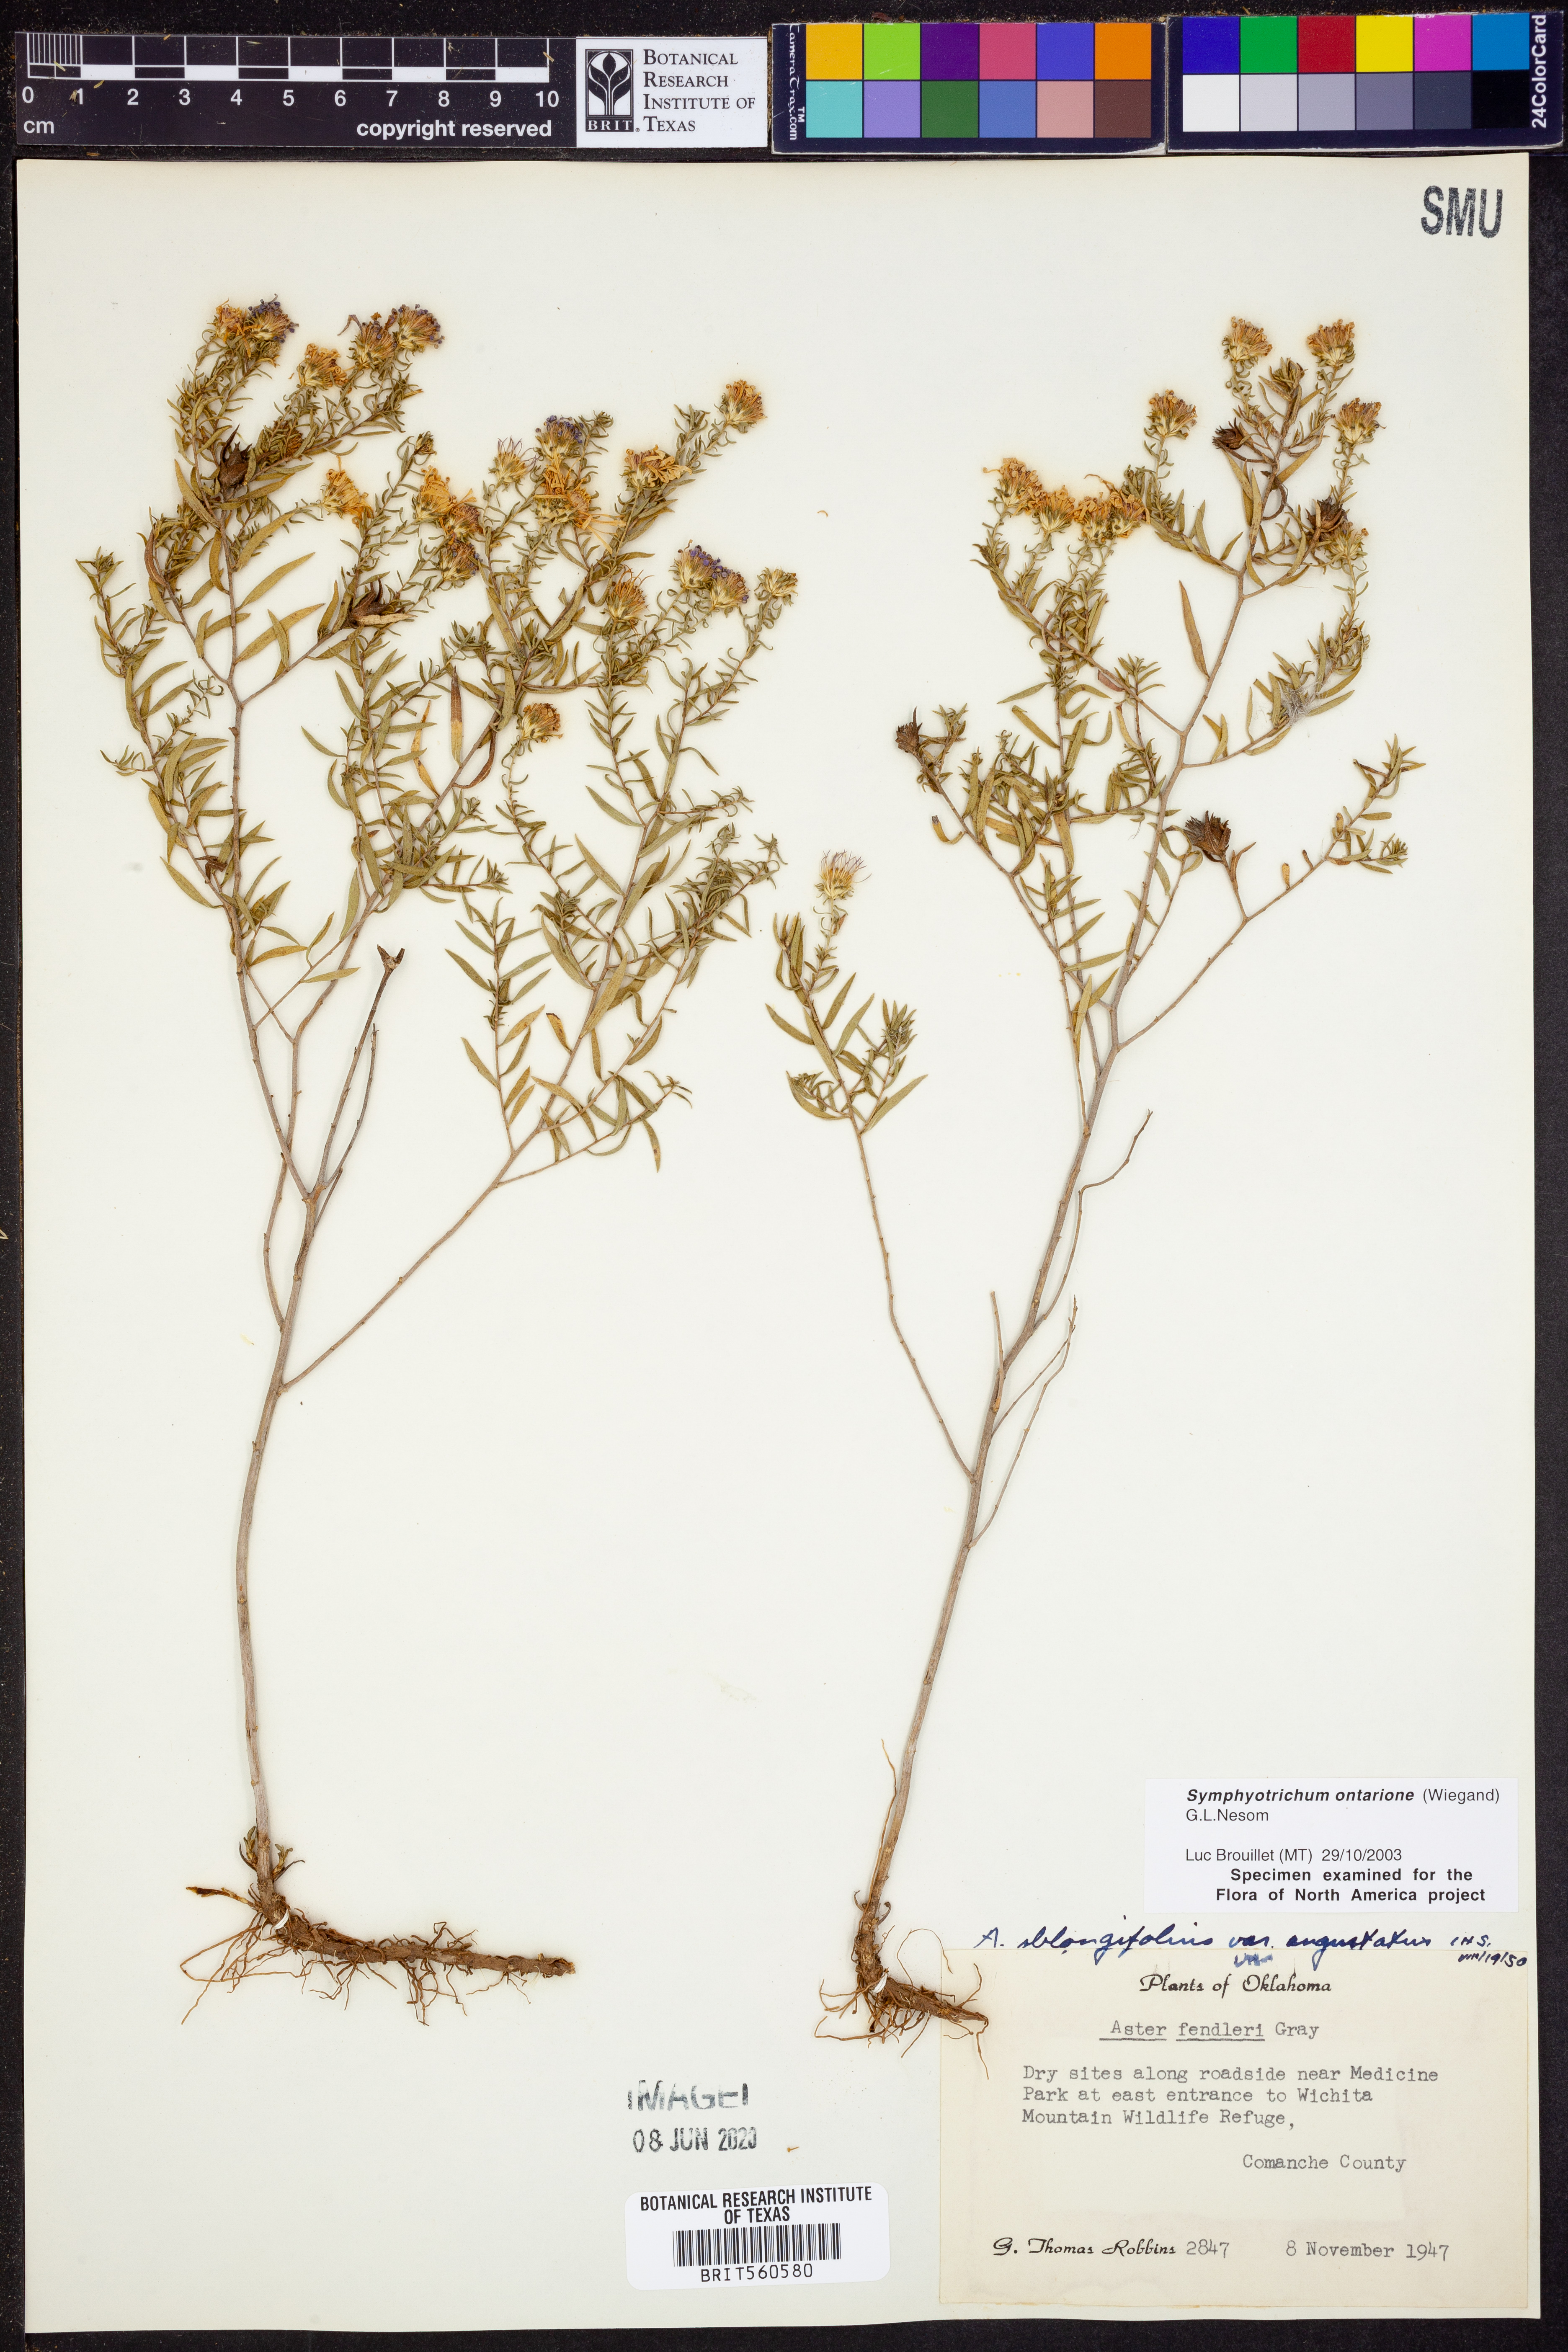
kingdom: Plantae
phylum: Tracheophyta
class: Magnoliopsida
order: Asterales
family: Asteraceae
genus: Symphyotrichum
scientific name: Symphyotrichum ontarionis
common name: Bottomland aster
